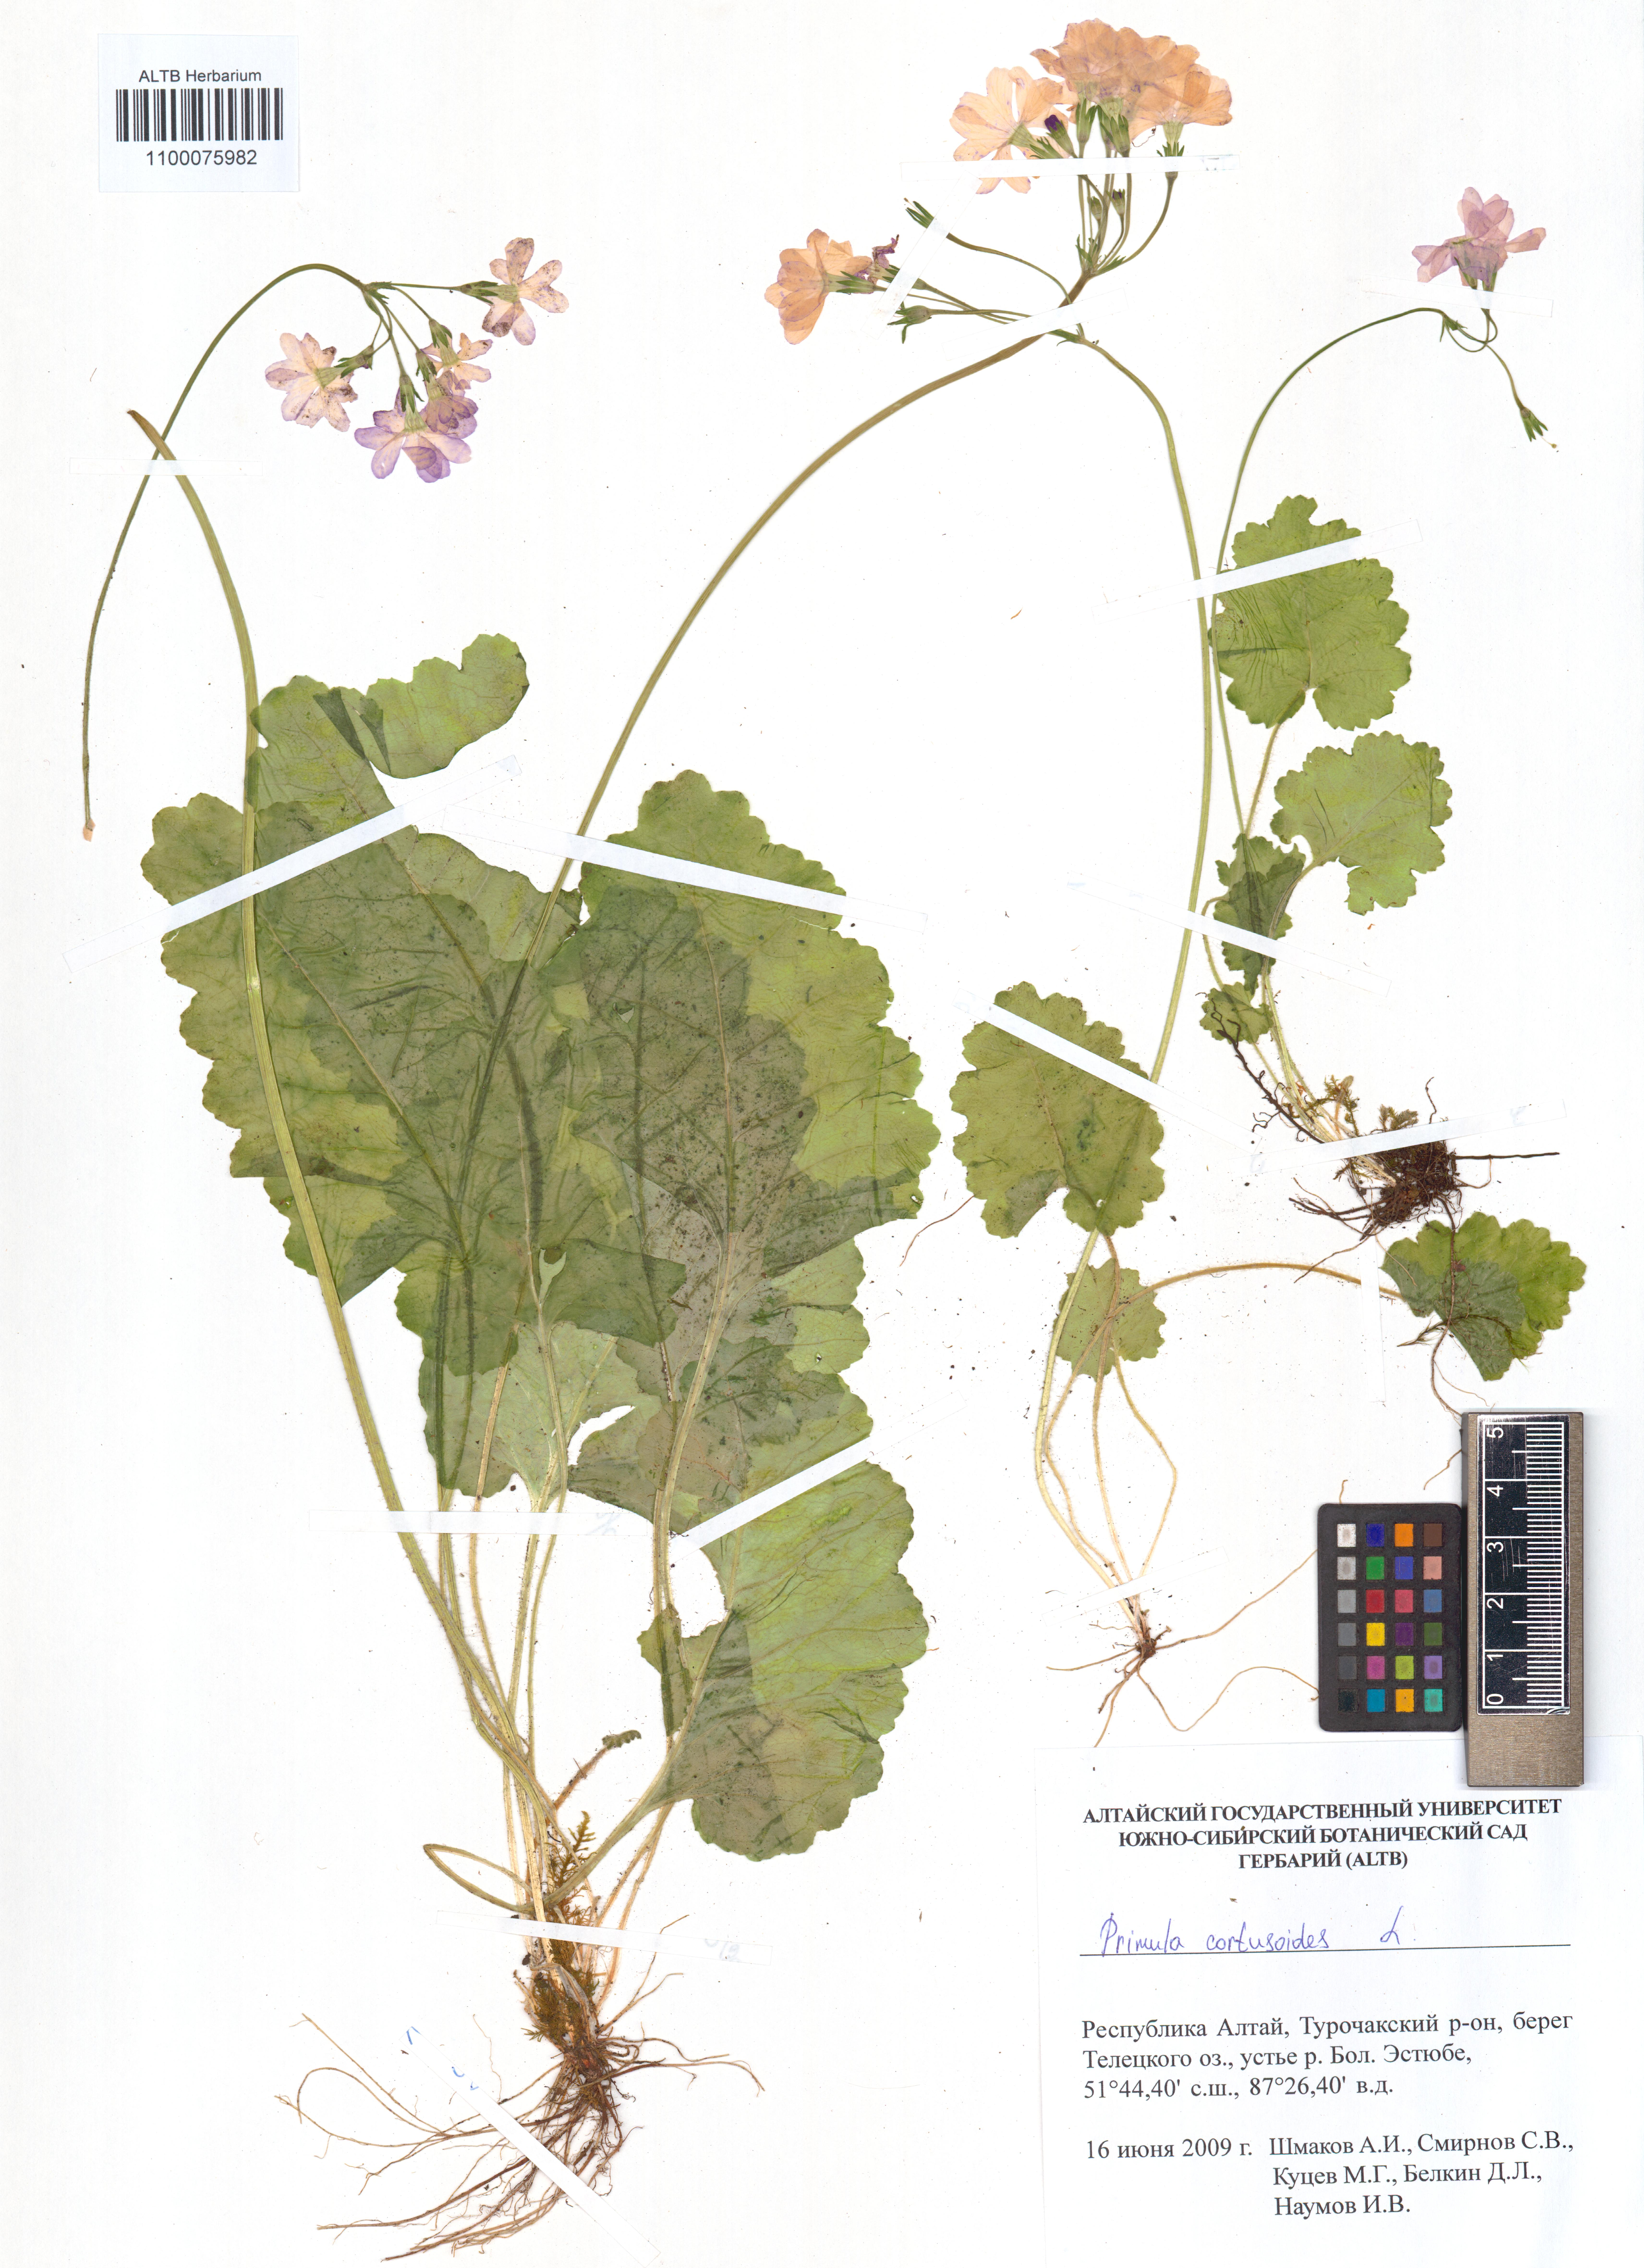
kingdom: Plantae
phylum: Tracheophyta
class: Magnoliopsida
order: Ericales
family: Primulaceae
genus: Primula
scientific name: Primula cortusoides
